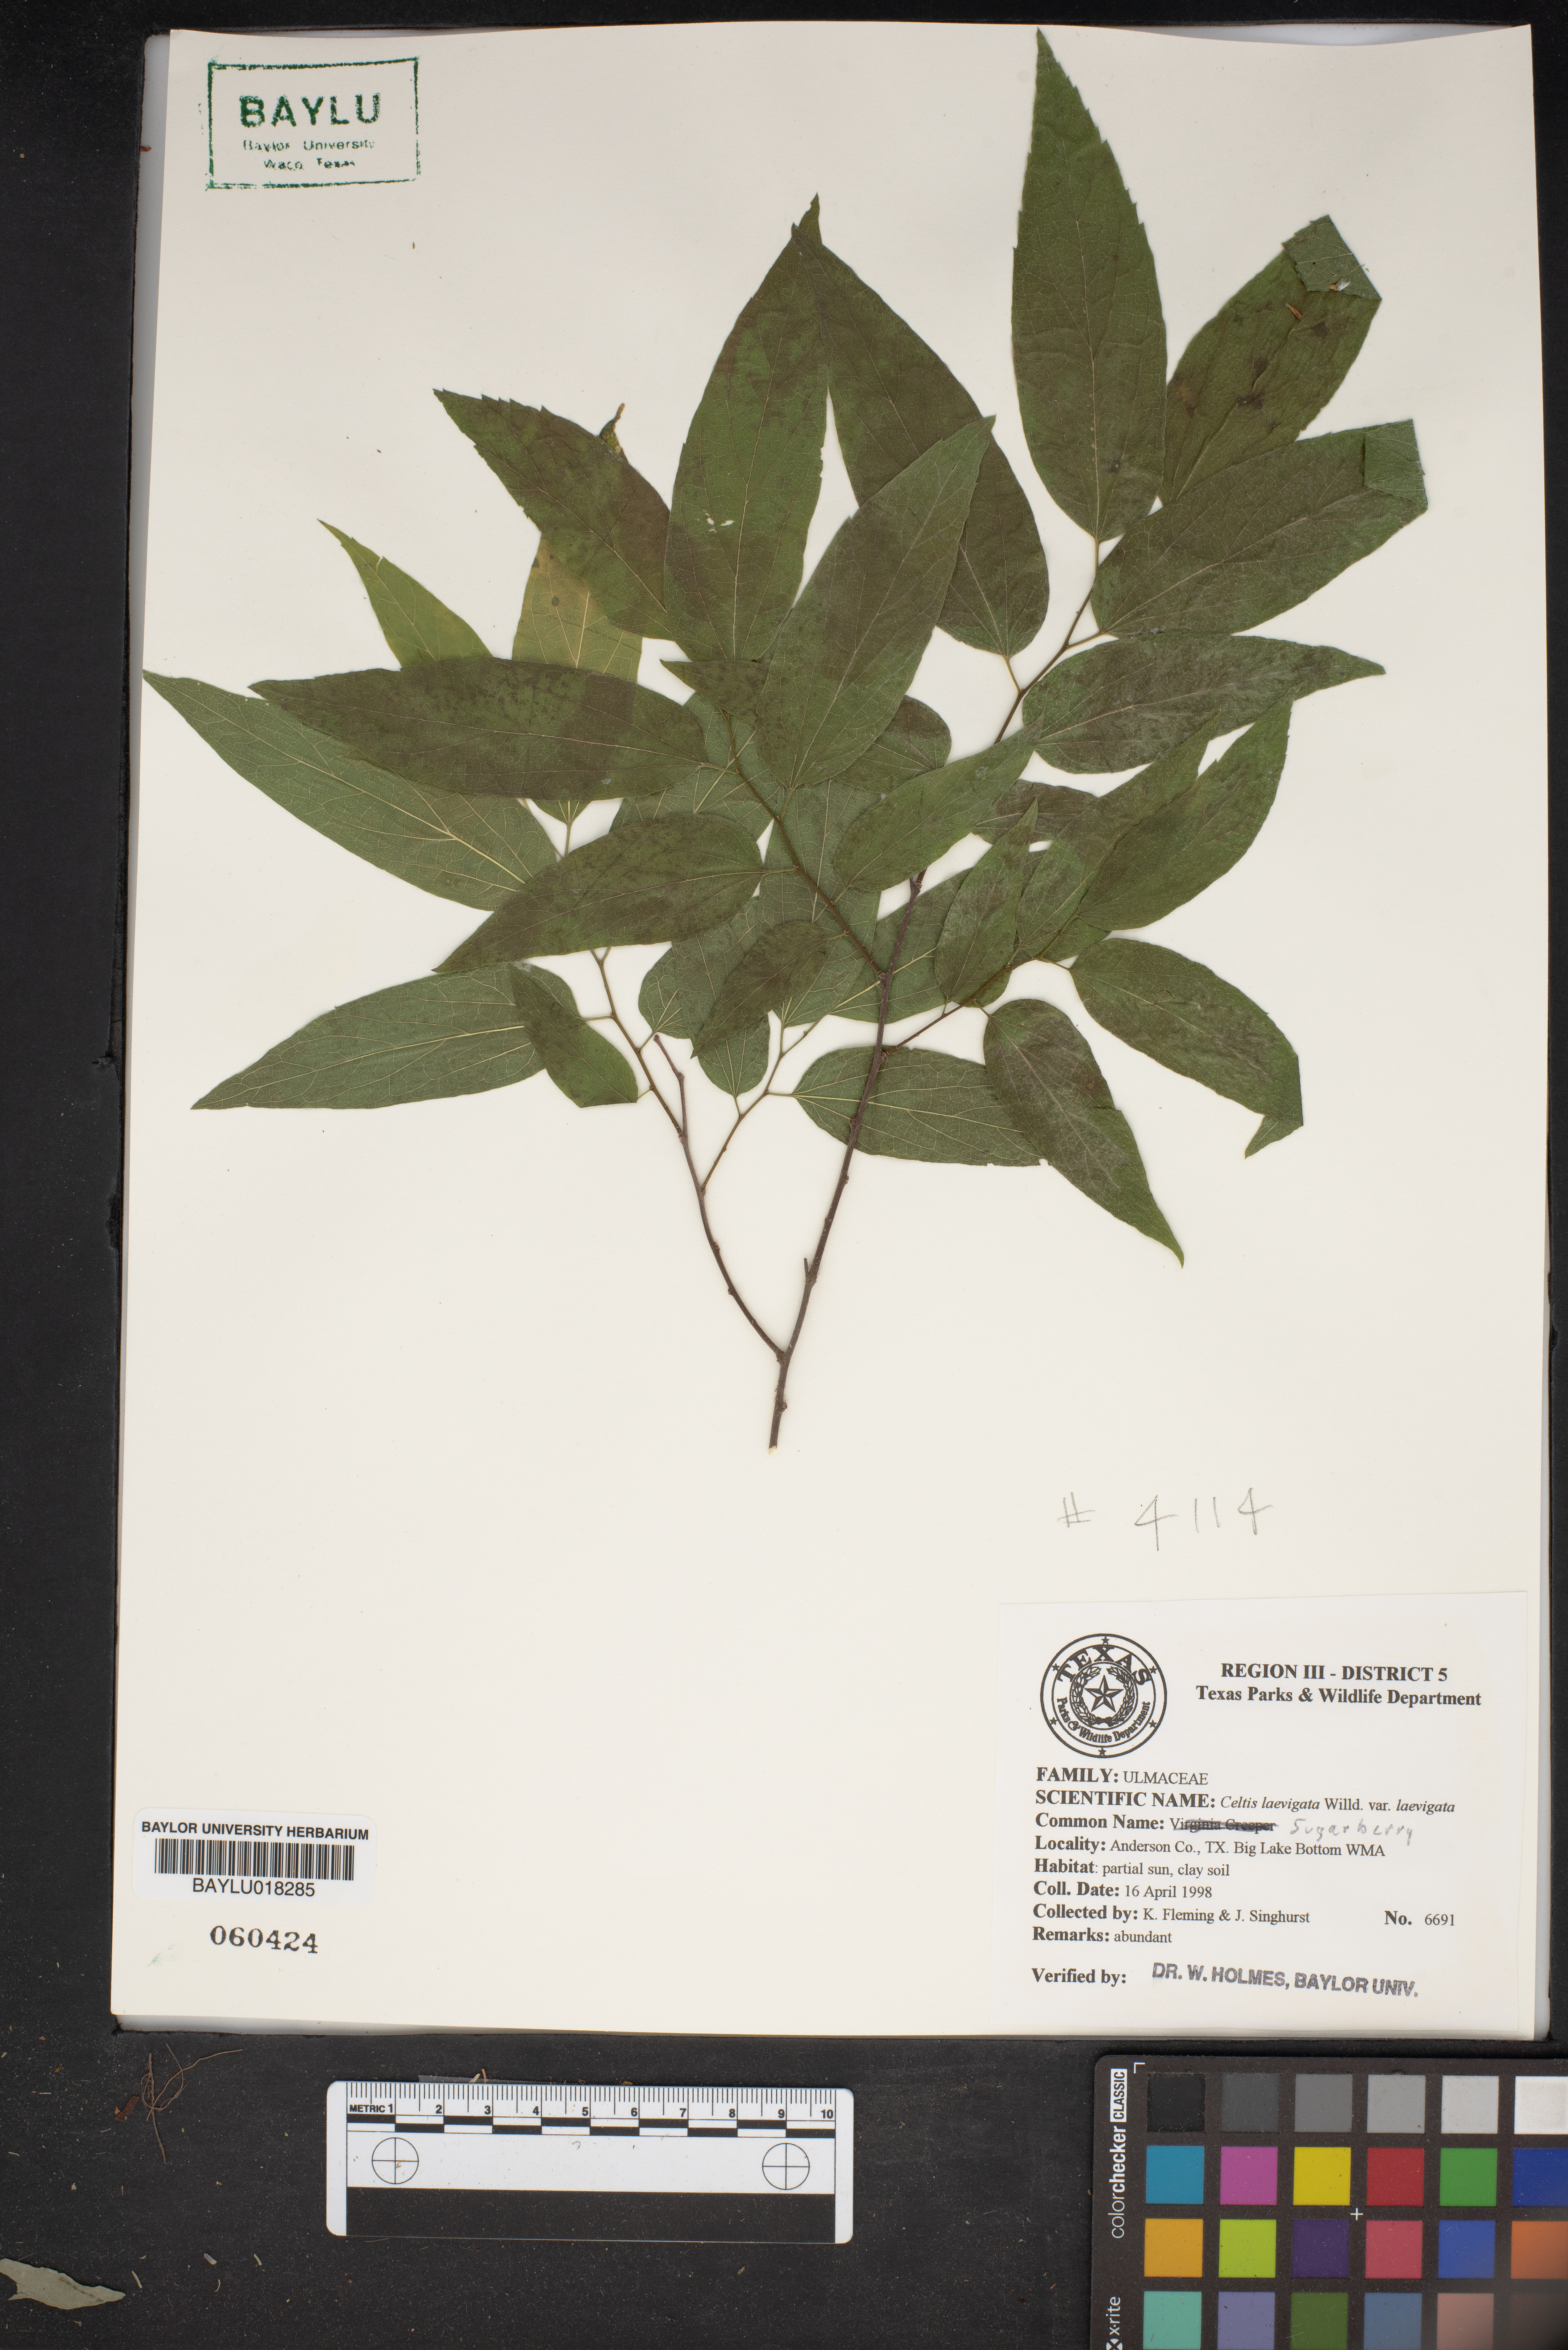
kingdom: Plantae
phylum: Tracheophyta
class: Magnoliopsida
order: Rosales
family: Cannabaceae
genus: Celtis
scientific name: Celtis laevigata
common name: Sugarberry
